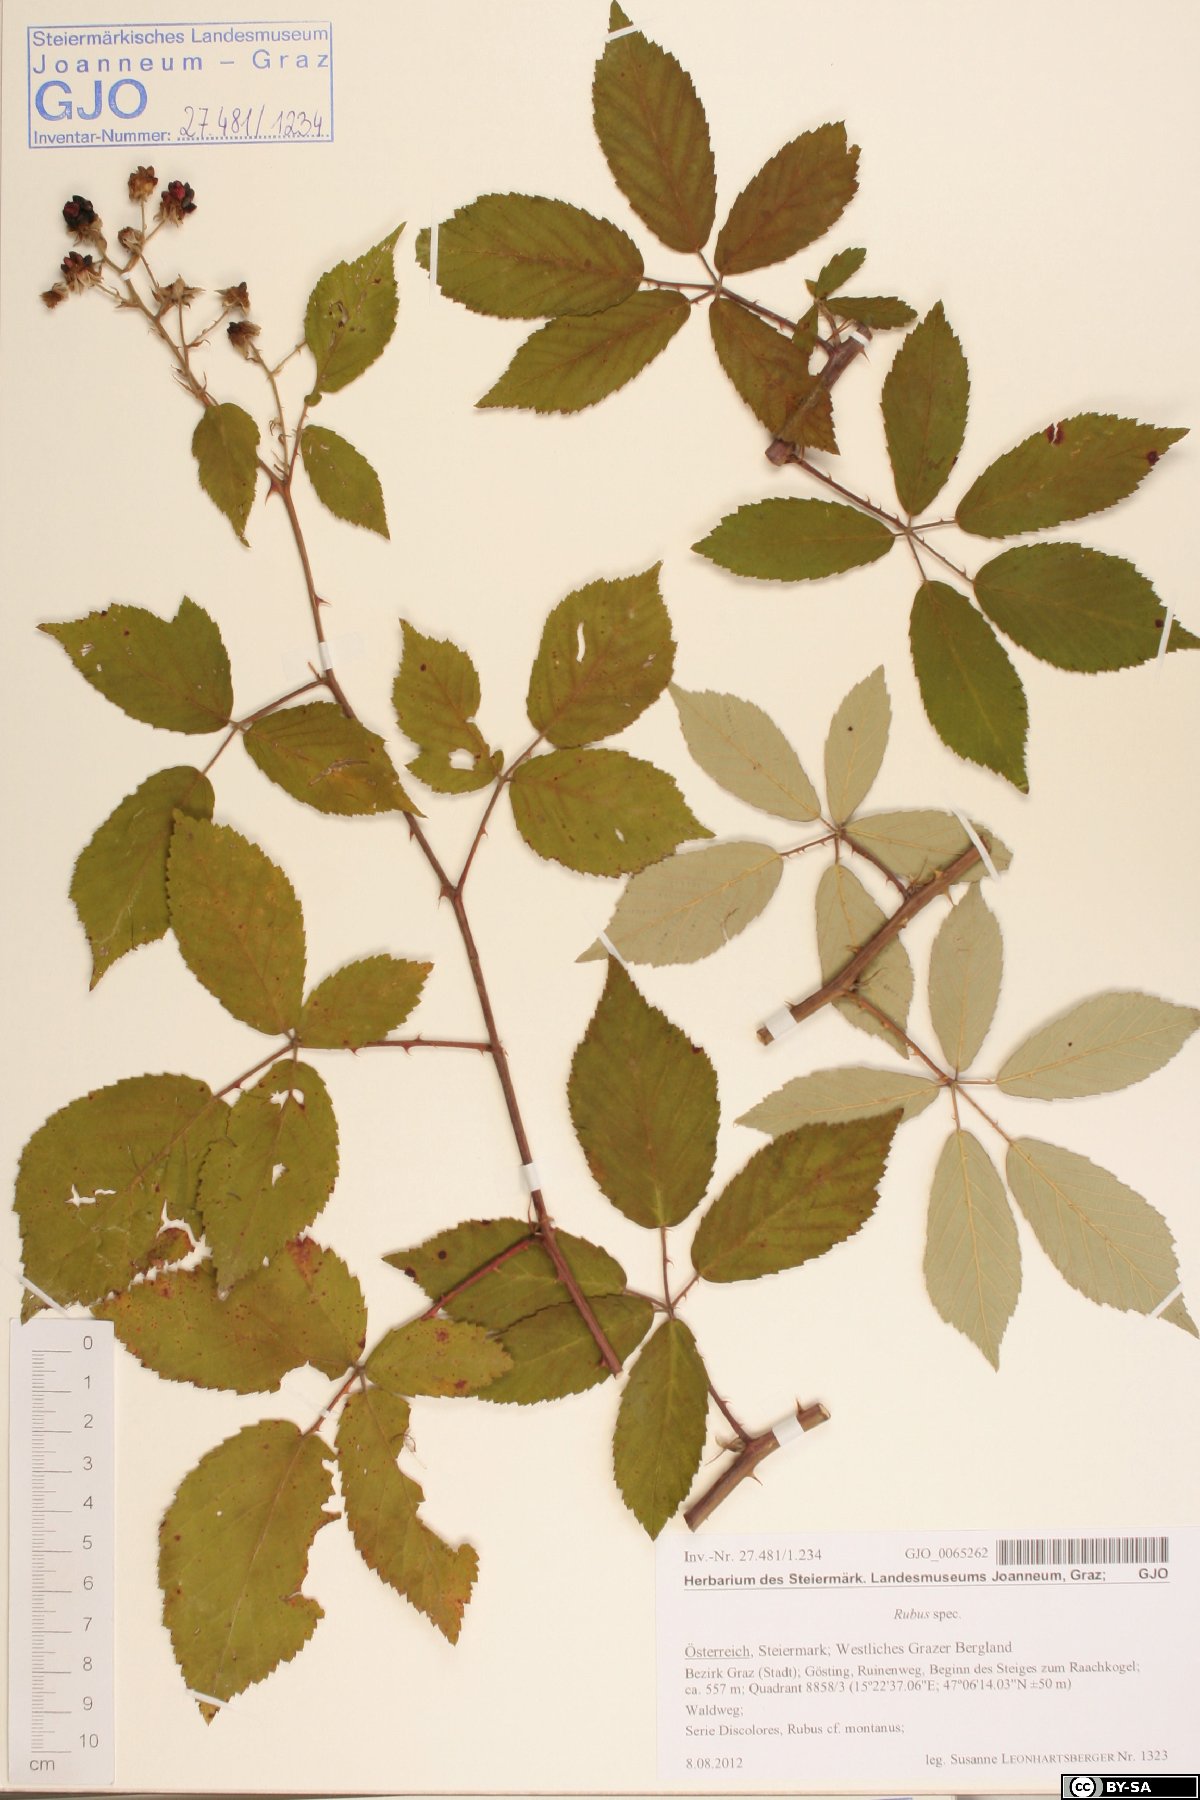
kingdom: Plantae
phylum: Tracheophyta
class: Magnoliopsida
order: Rosales
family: Rosaceae
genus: Rubus
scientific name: Rubus
